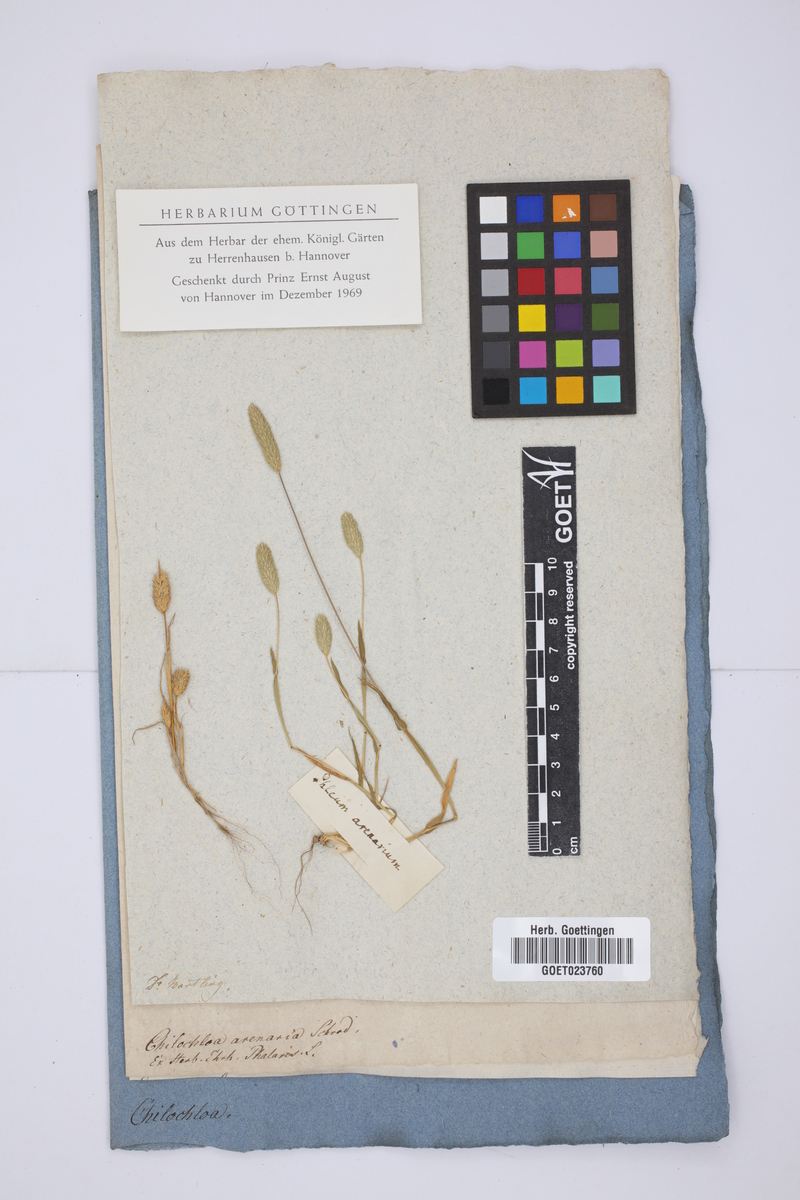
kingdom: Plantae
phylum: Tracheophyta
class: Liliopsida
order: Poales
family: Poaceae
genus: Phleum
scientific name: Phleum arenarium
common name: Sand cat's-tail
